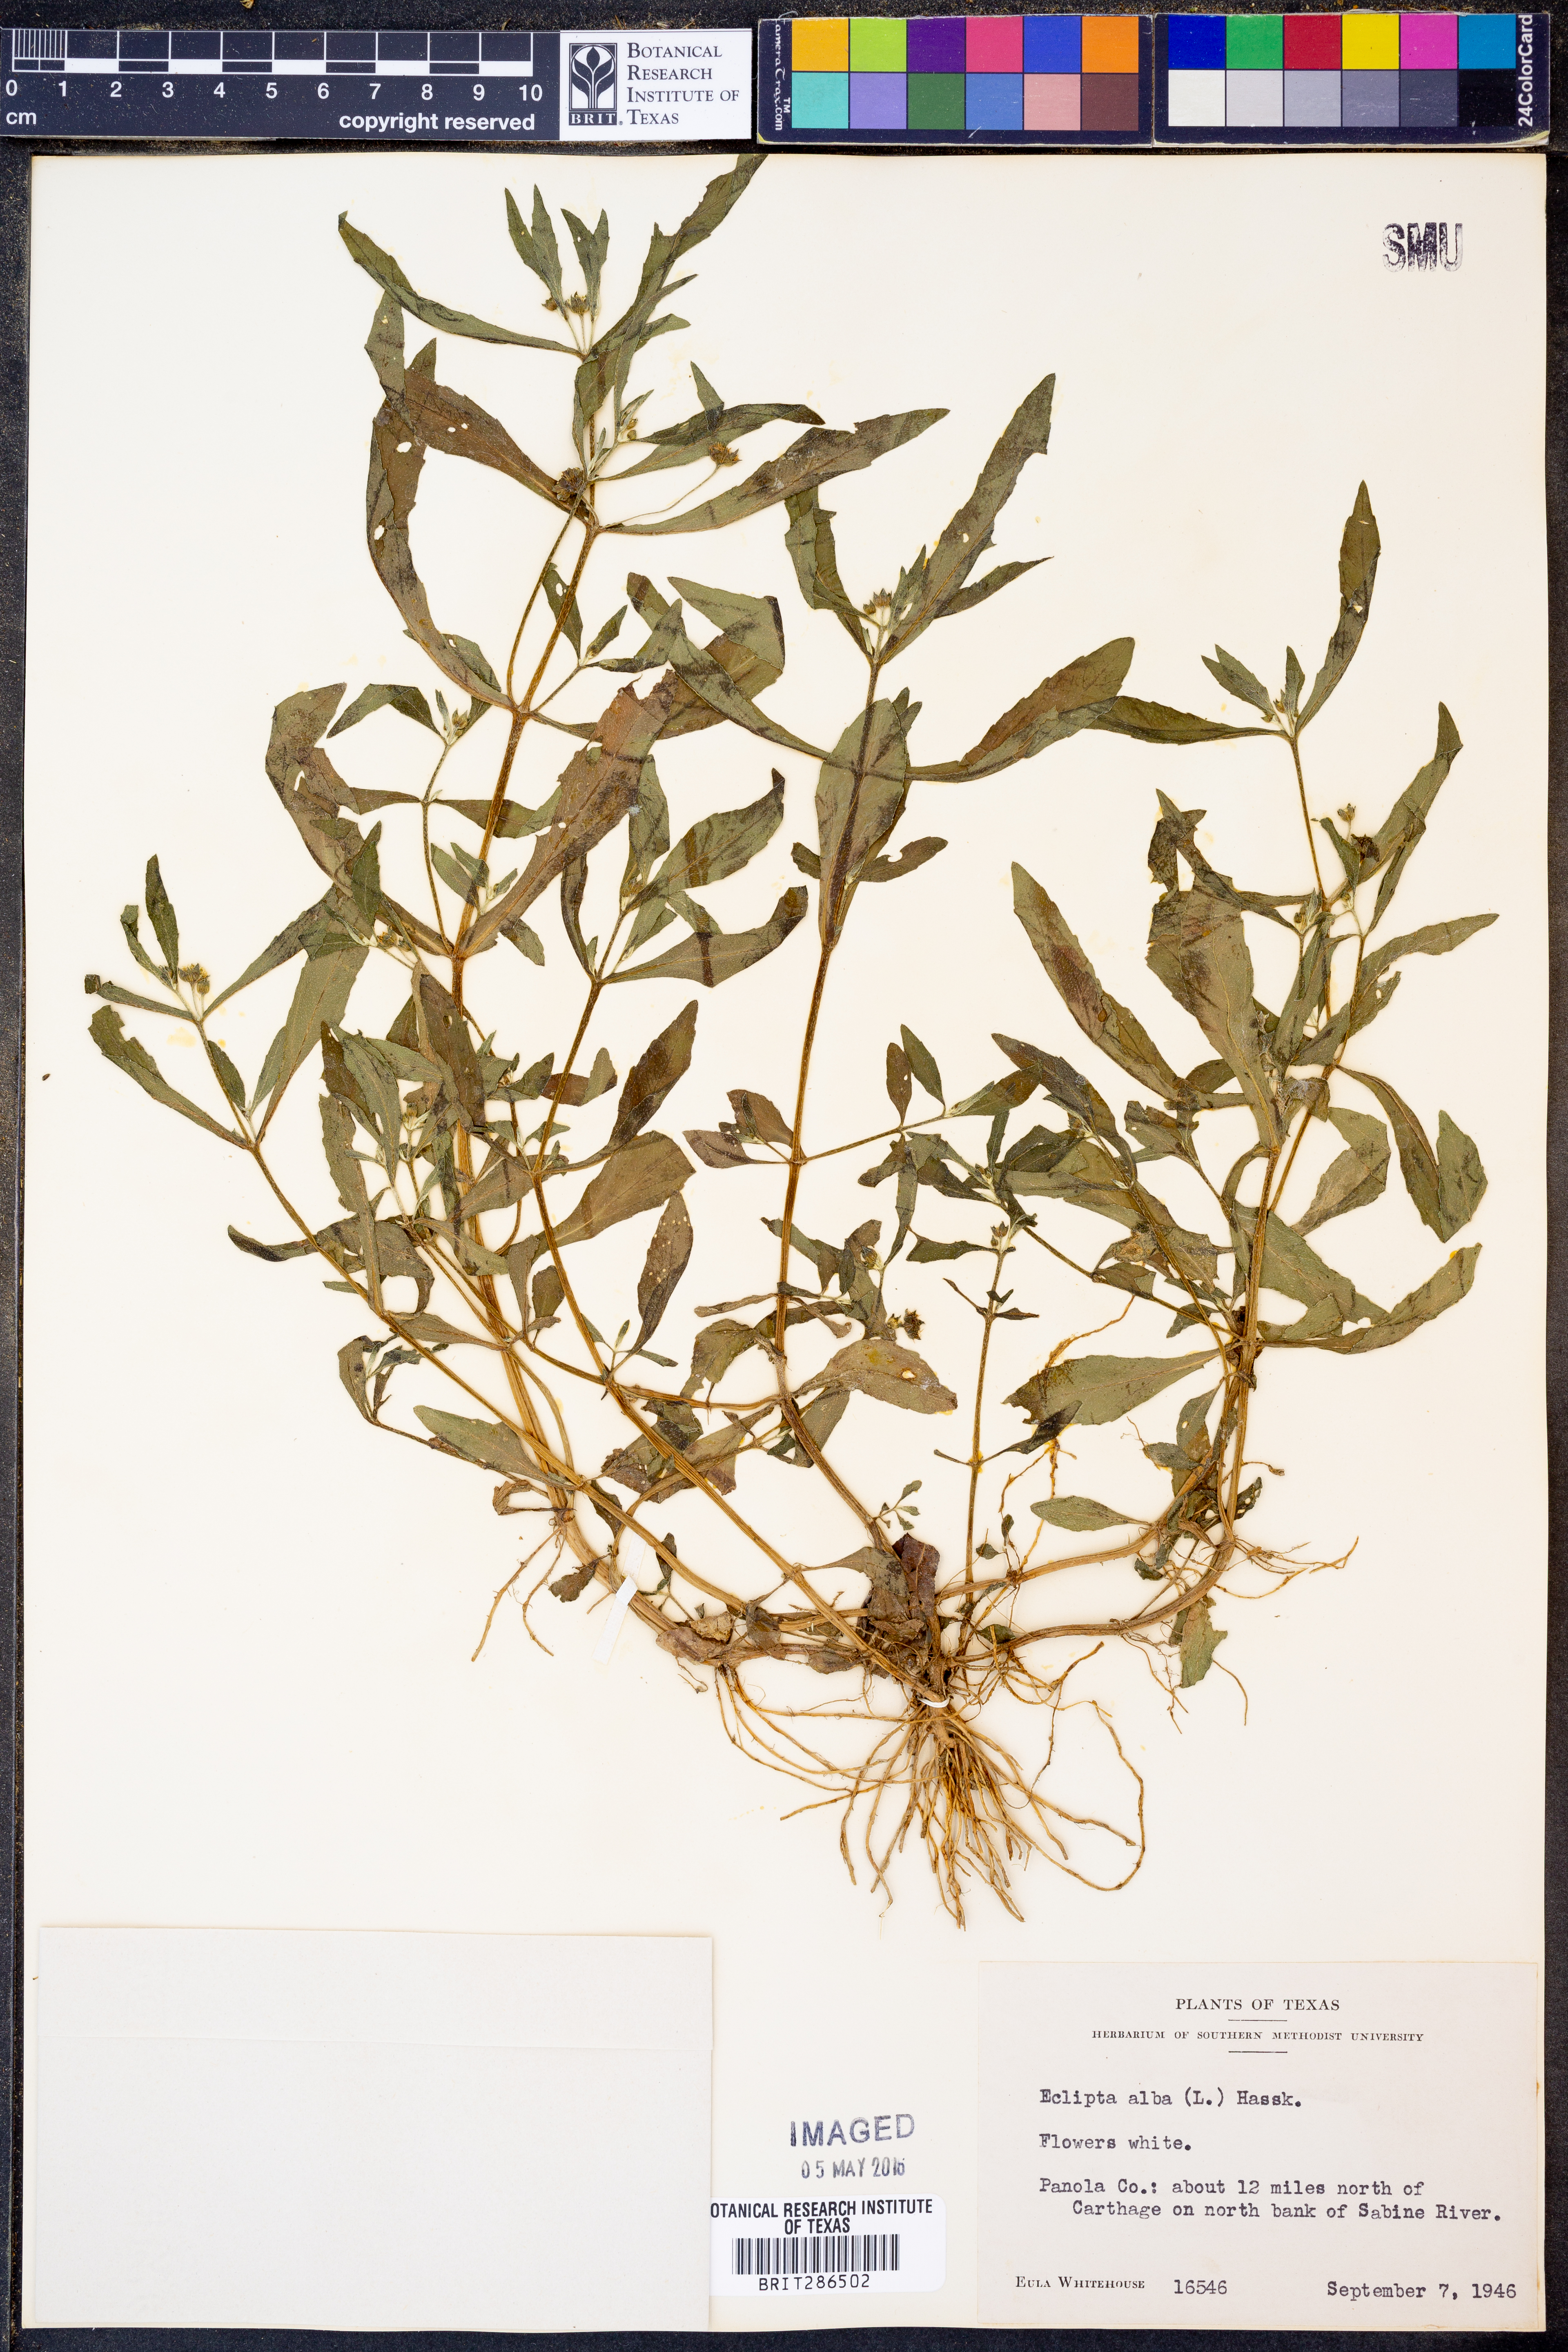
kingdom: Plantae
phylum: Tracheophyta
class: Magnoliopsida
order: Asterales
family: Asteraceae
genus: Eclipta
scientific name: Eclipta alba
